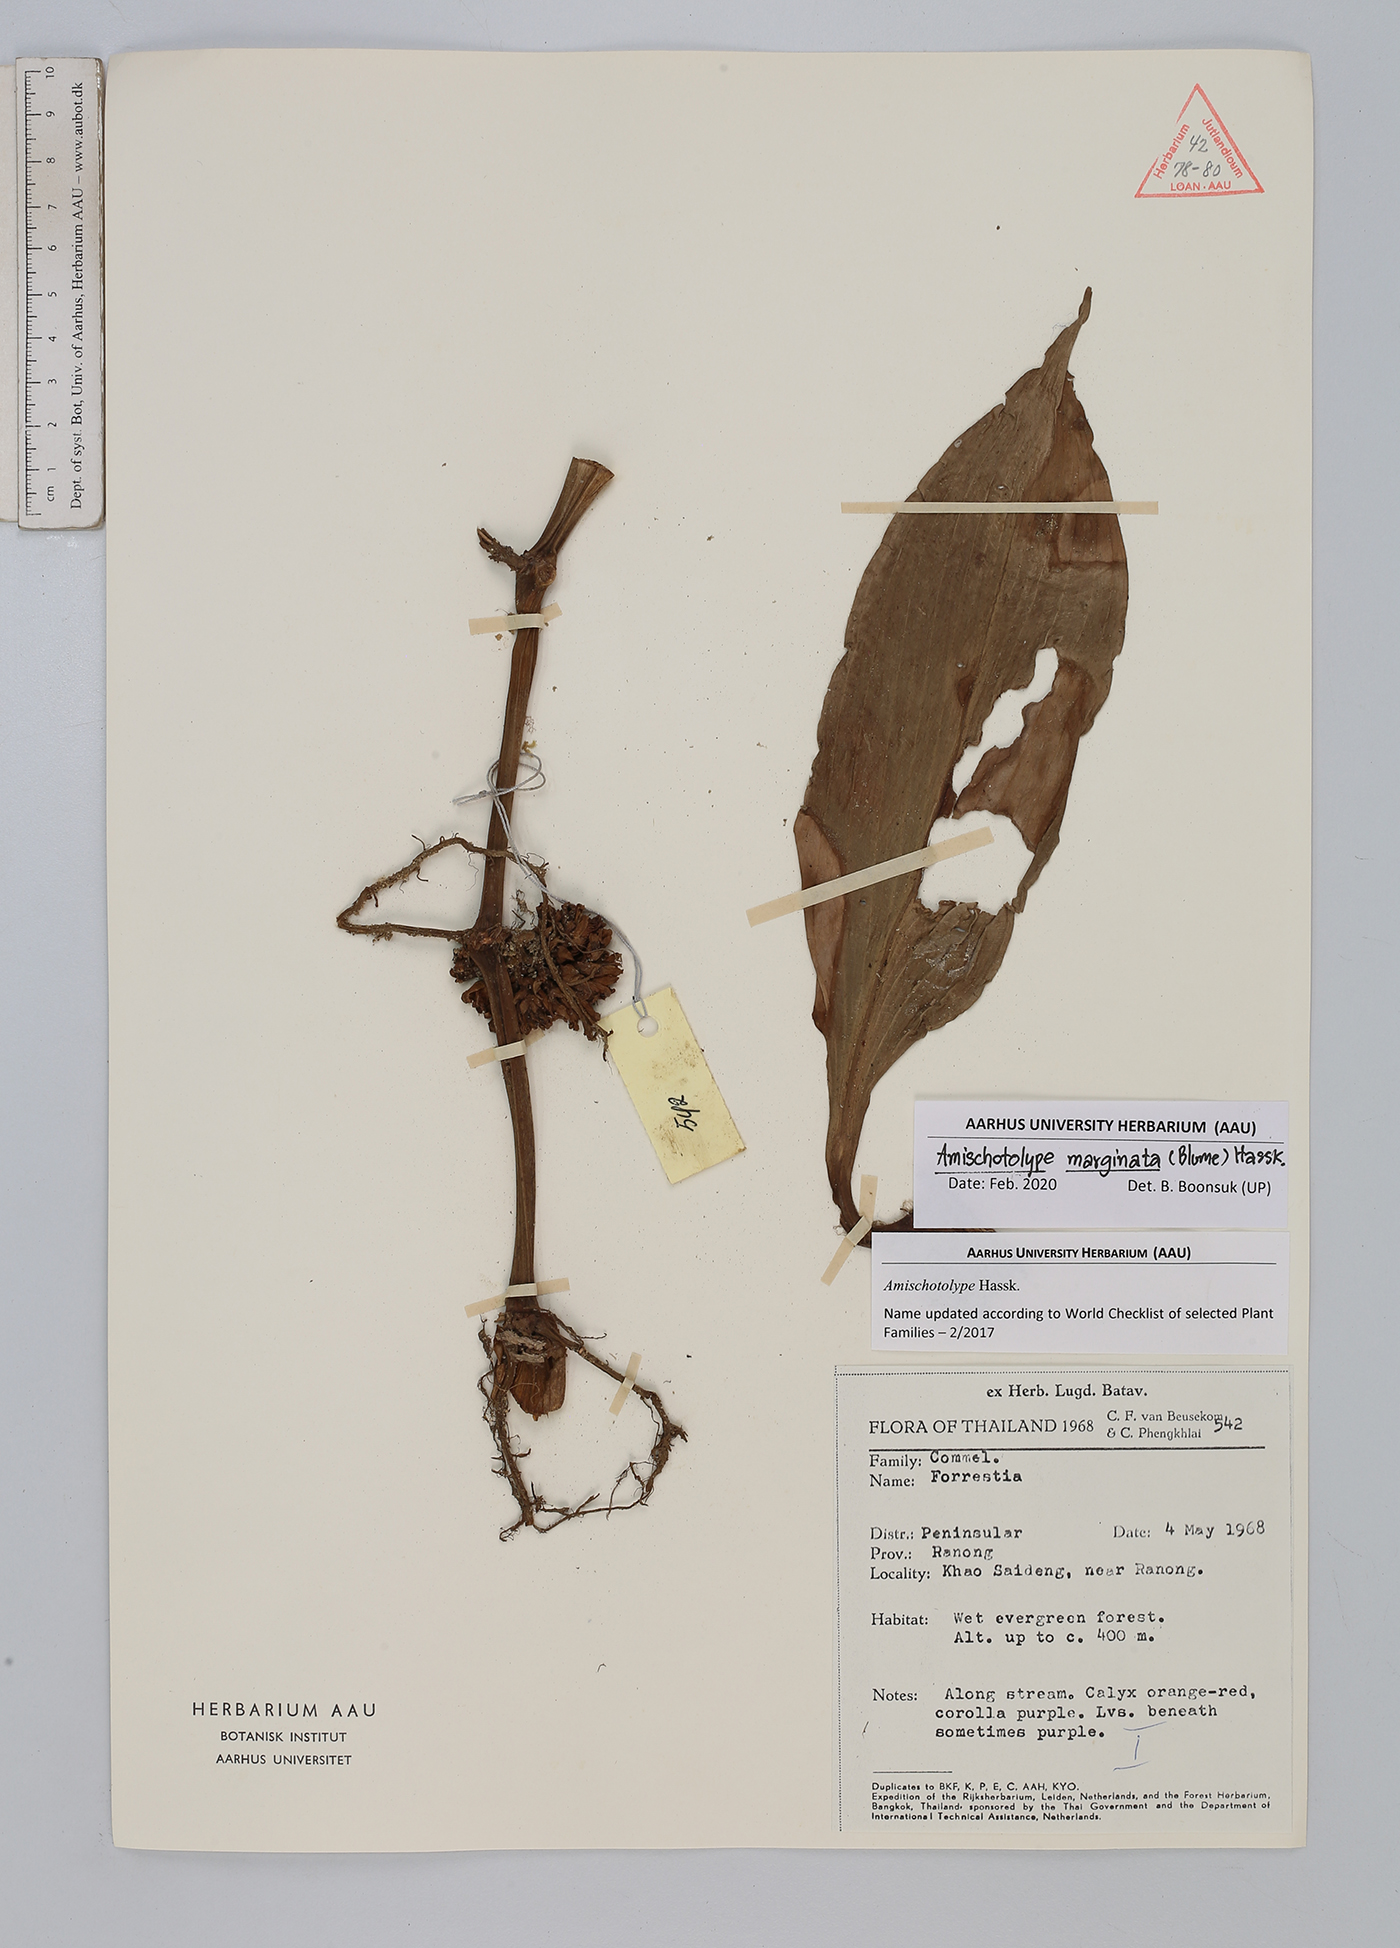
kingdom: Plantae
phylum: Tracheophyta
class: Liliopsida
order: Commelinales
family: Commelinaceae
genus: Amischotolype
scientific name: Amischotolype marginata
